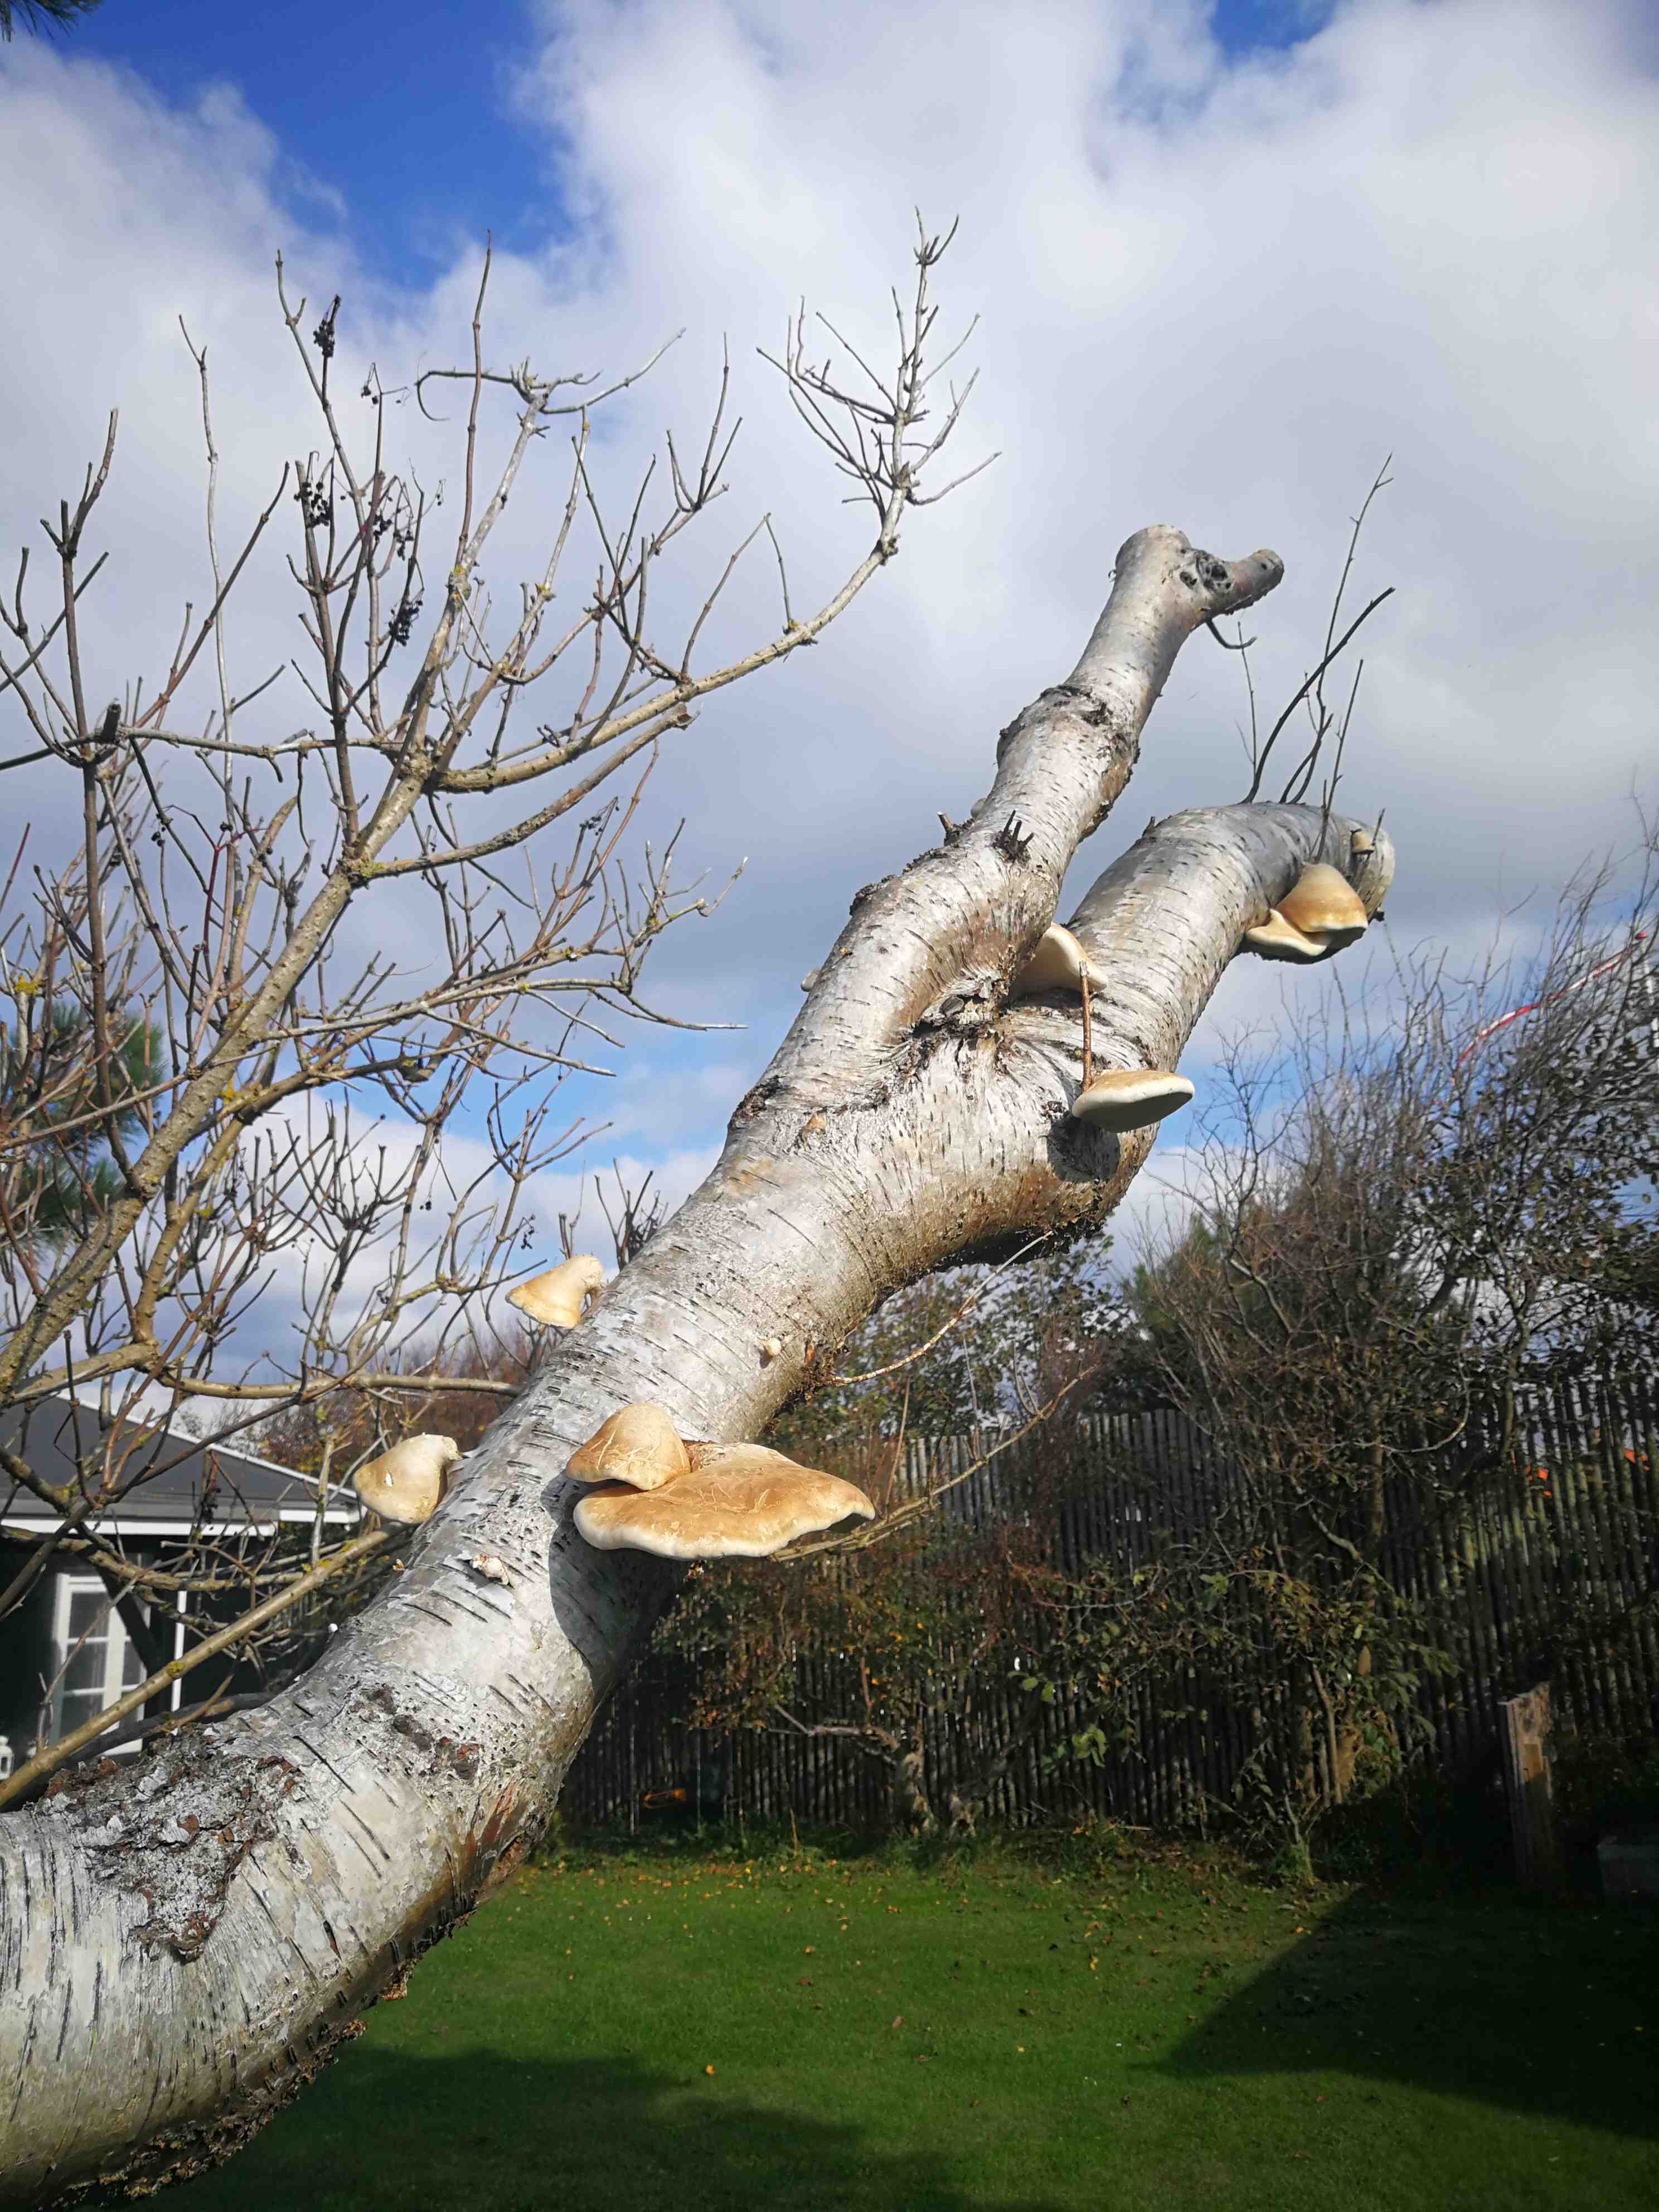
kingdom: Fungi
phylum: Basidiomycota
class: Agaricomycetes
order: Polyporales
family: Fomitopsidaceae
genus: Fomitopsis
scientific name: Fomitopsis betulina
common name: birkeporesvamp
